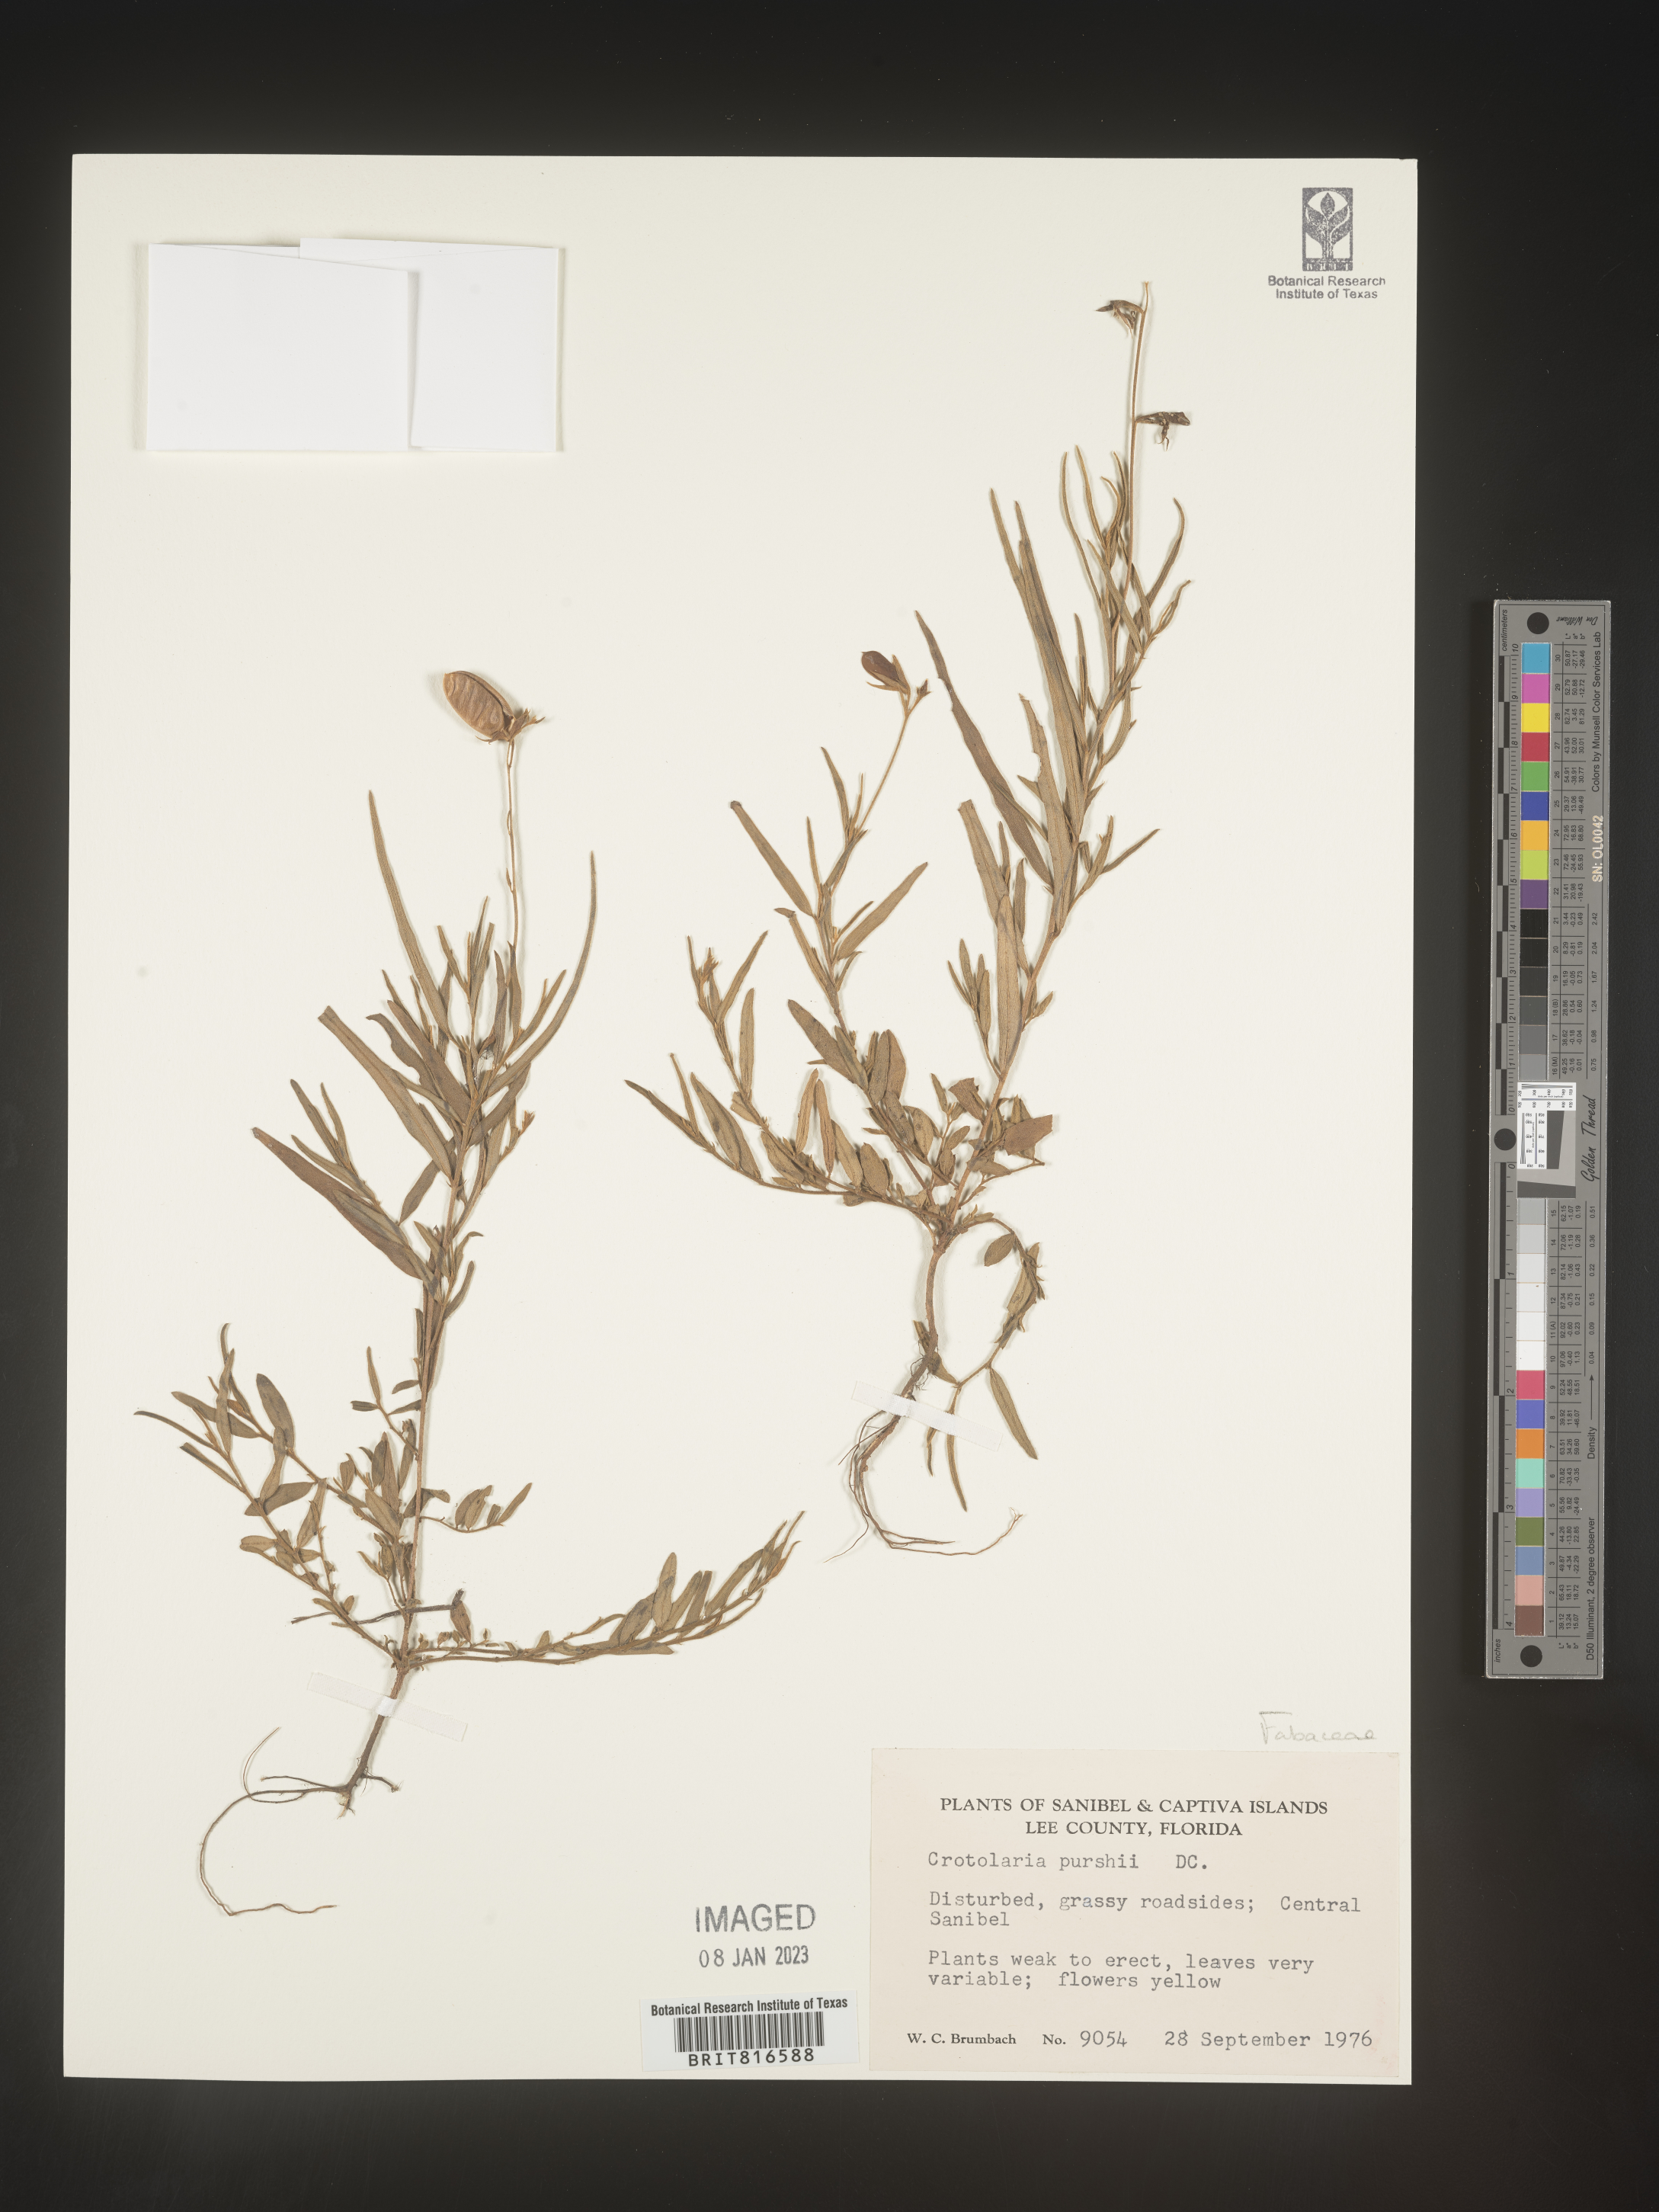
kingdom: Plantae
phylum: Tracheophyta
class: Magnoliopsida
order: Fabales
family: Fabaceae
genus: Crotalaria
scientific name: Crotalaria purshii
